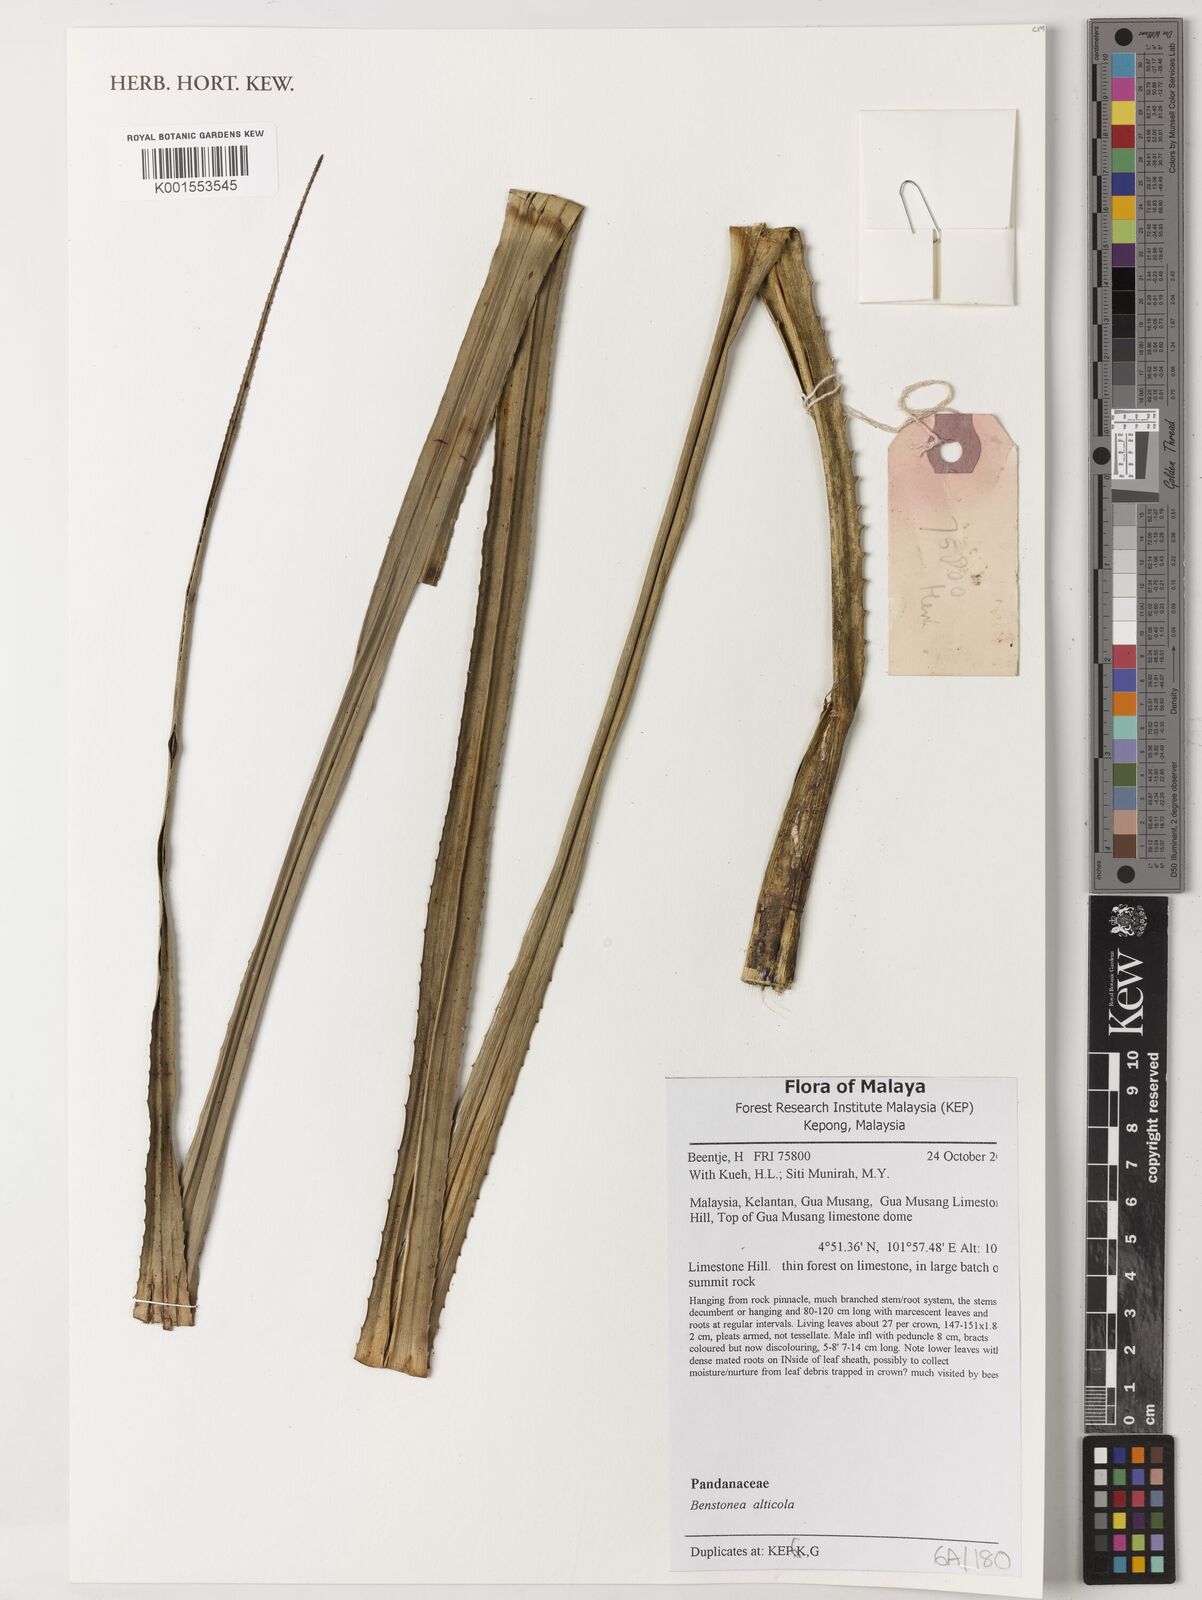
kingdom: Plantae
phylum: Tracheophyta
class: Liliopsida
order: Pandanales
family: Pandanaceae
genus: Benstonea
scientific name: Benstonea alticola
